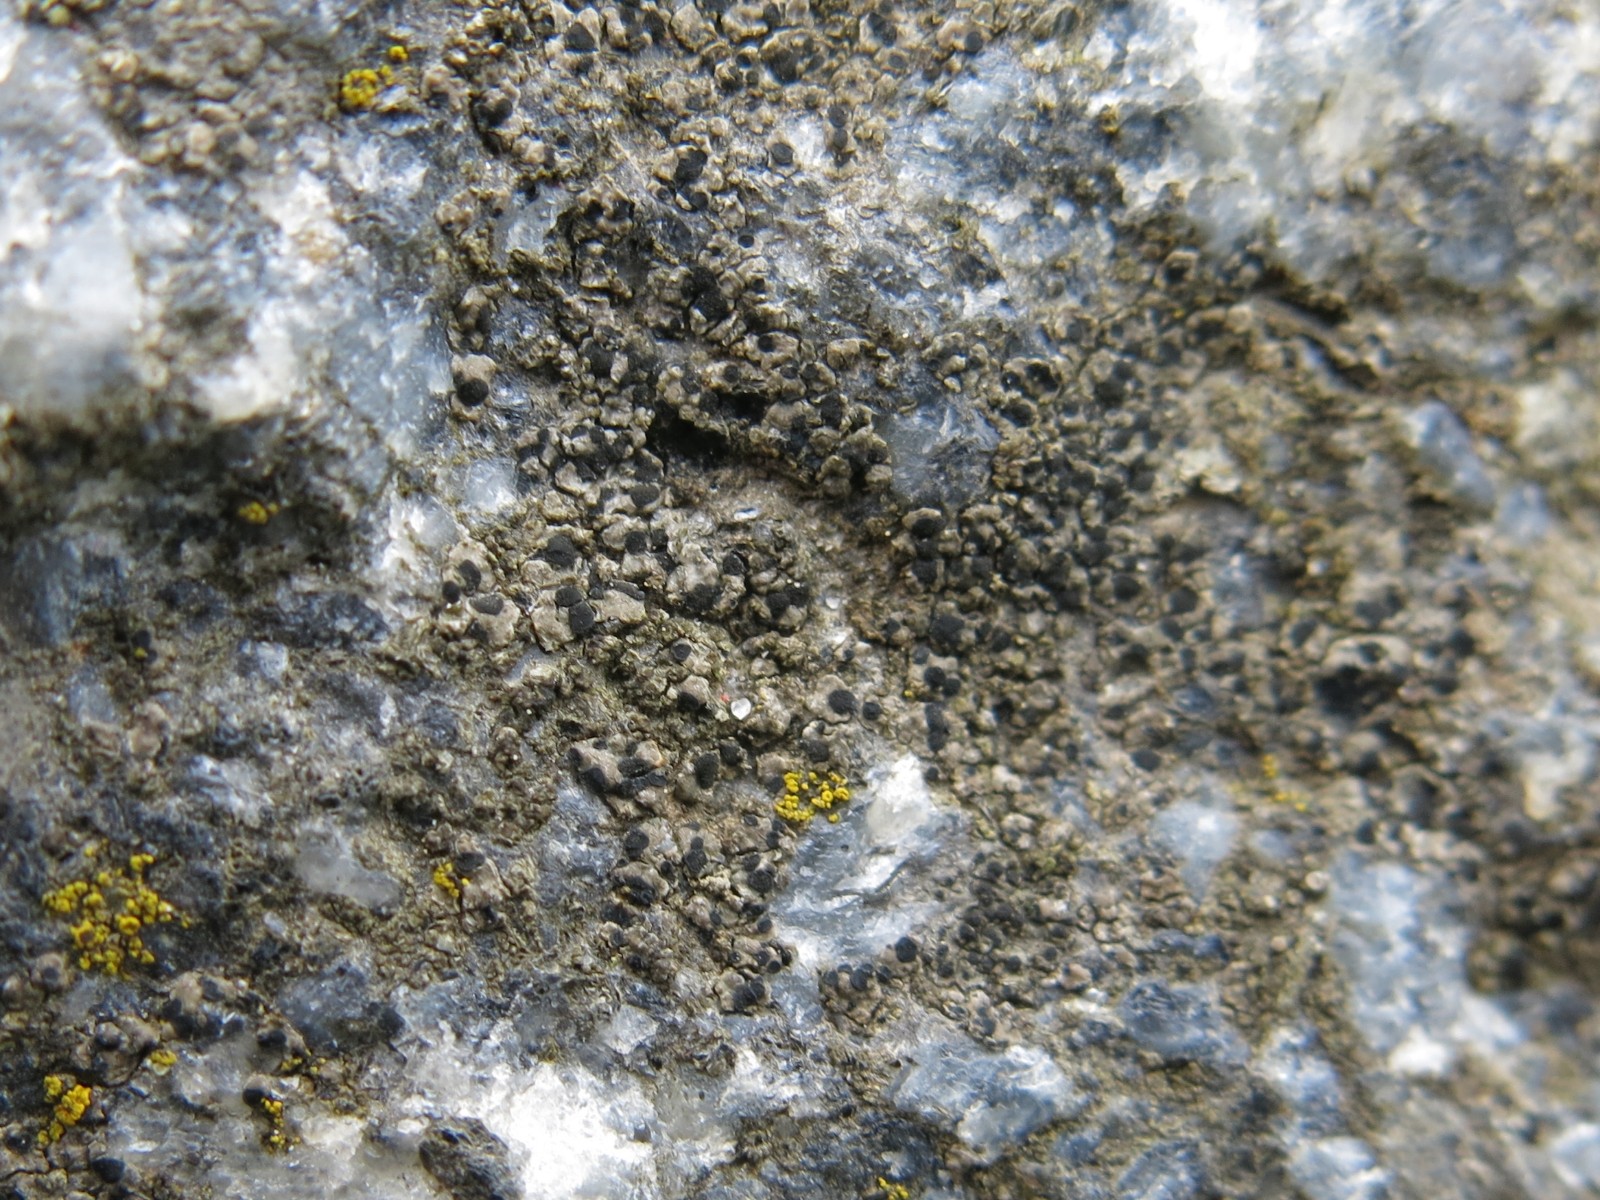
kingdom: Fungi
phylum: Ascomycota
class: Lecanoromycetes
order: Lecanorales
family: Parmeliaceae
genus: Protoparmelia
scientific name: Protoparmelia badia
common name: mørk kantskivelav
